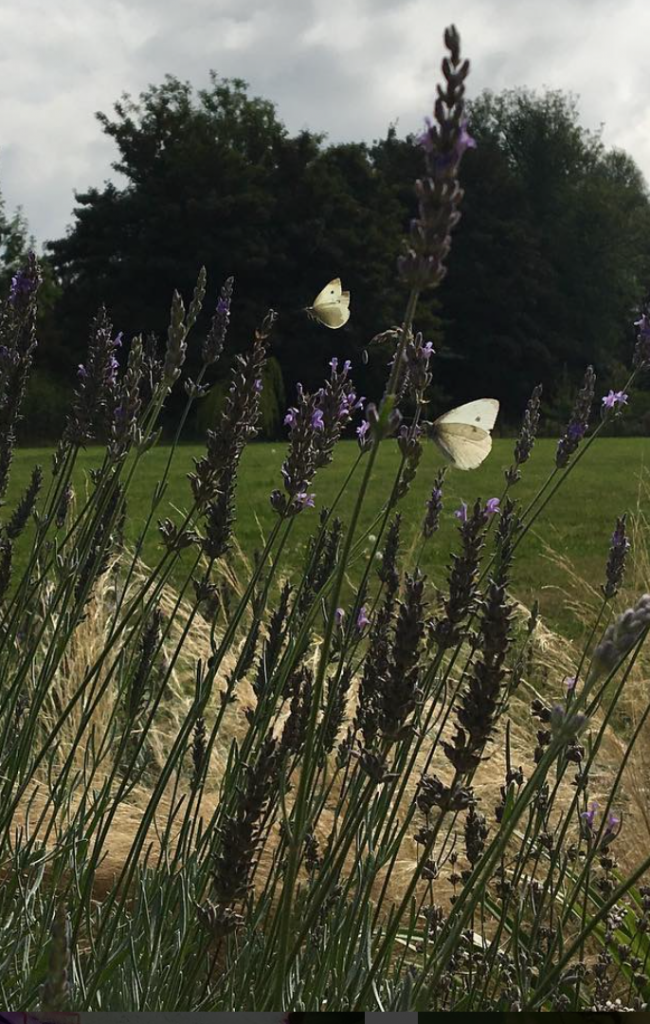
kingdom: Animalia
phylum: Arthropoda
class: Insecta
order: Lepidoptera
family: Pieridae
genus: Pieris
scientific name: Pieris rapae
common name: Cabbage White
